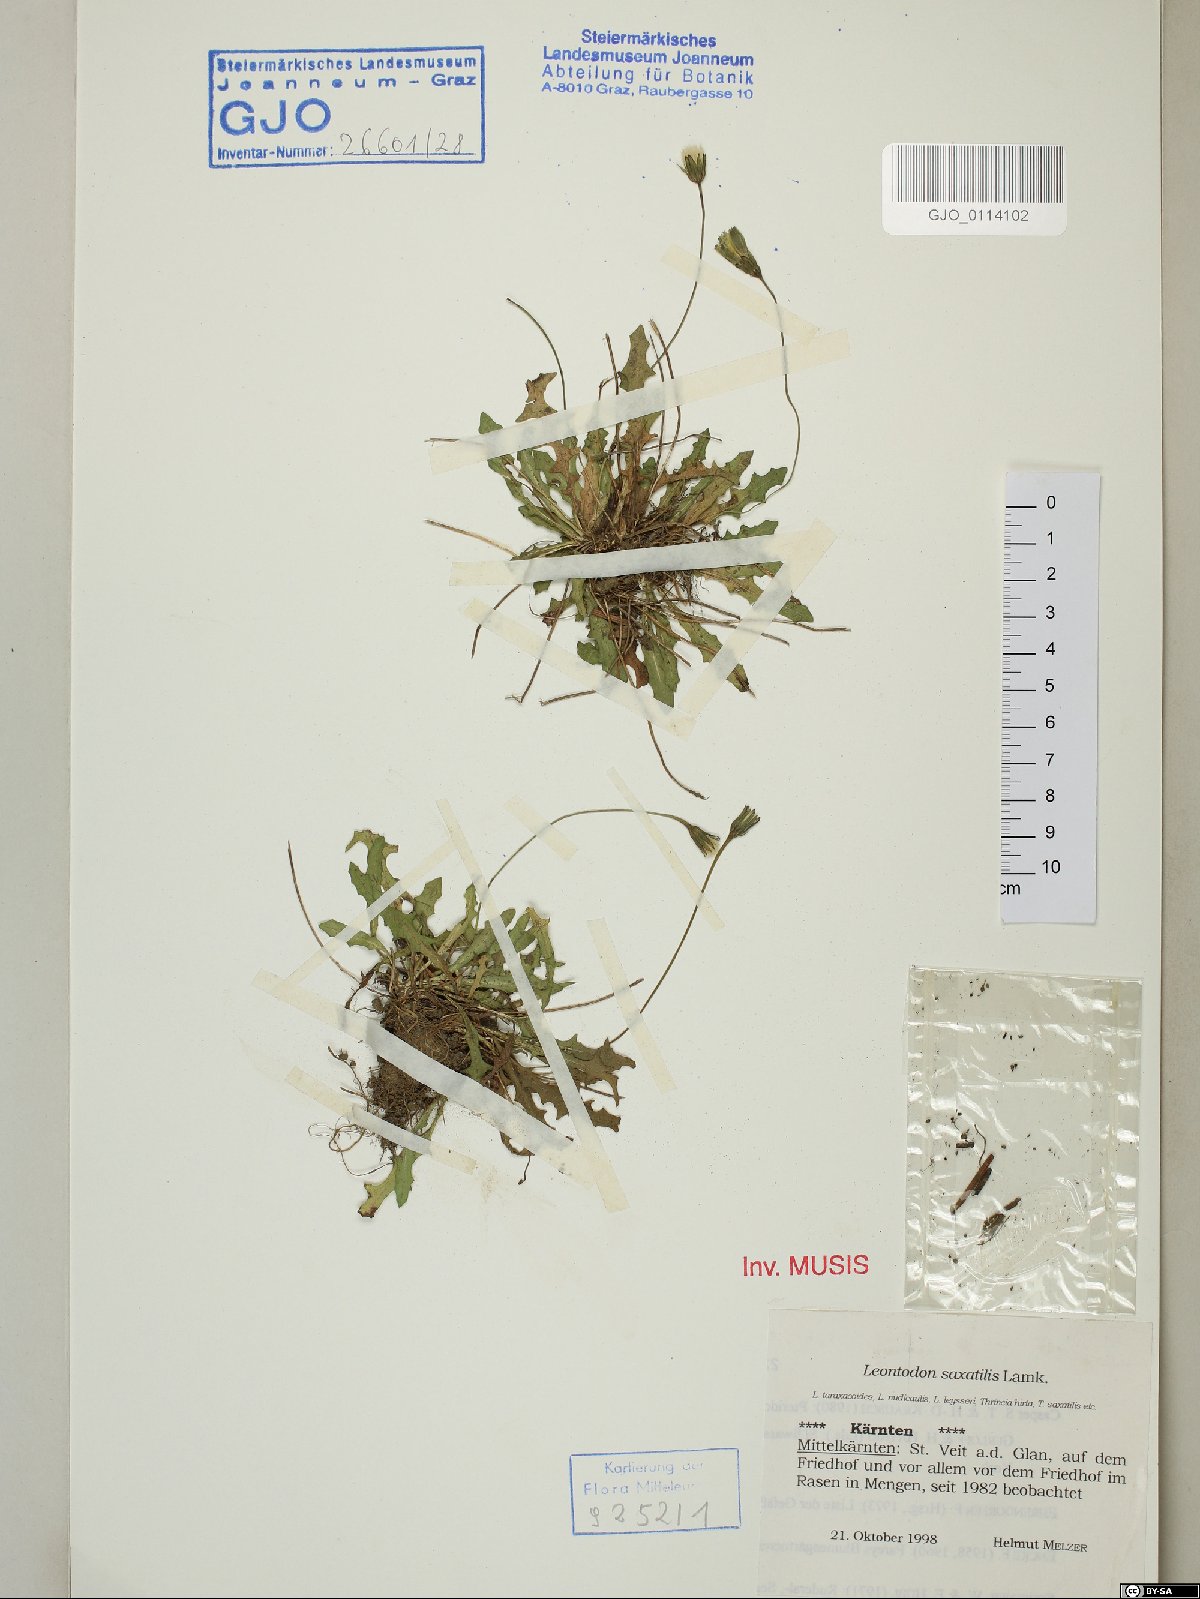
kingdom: Plantae
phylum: Tracheophyta
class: Magnoliopsida
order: Asterales
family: Asteraceae
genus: Thrincia
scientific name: Thrincia saxatilis
